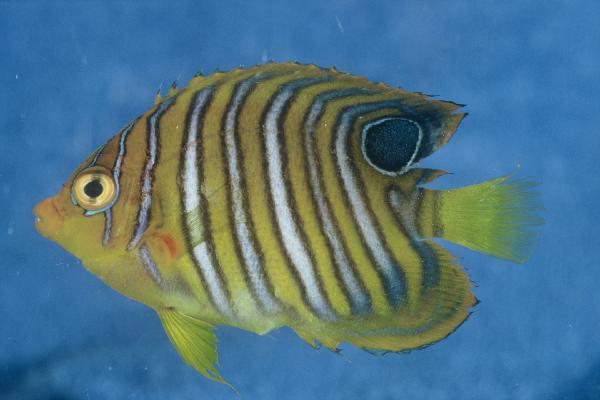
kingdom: Animalia
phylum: Chordata
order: Perciformes
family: Pomacanthidae
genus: Pygoplites
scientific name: Pygoplites diacanthus
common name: Regal angelfish
